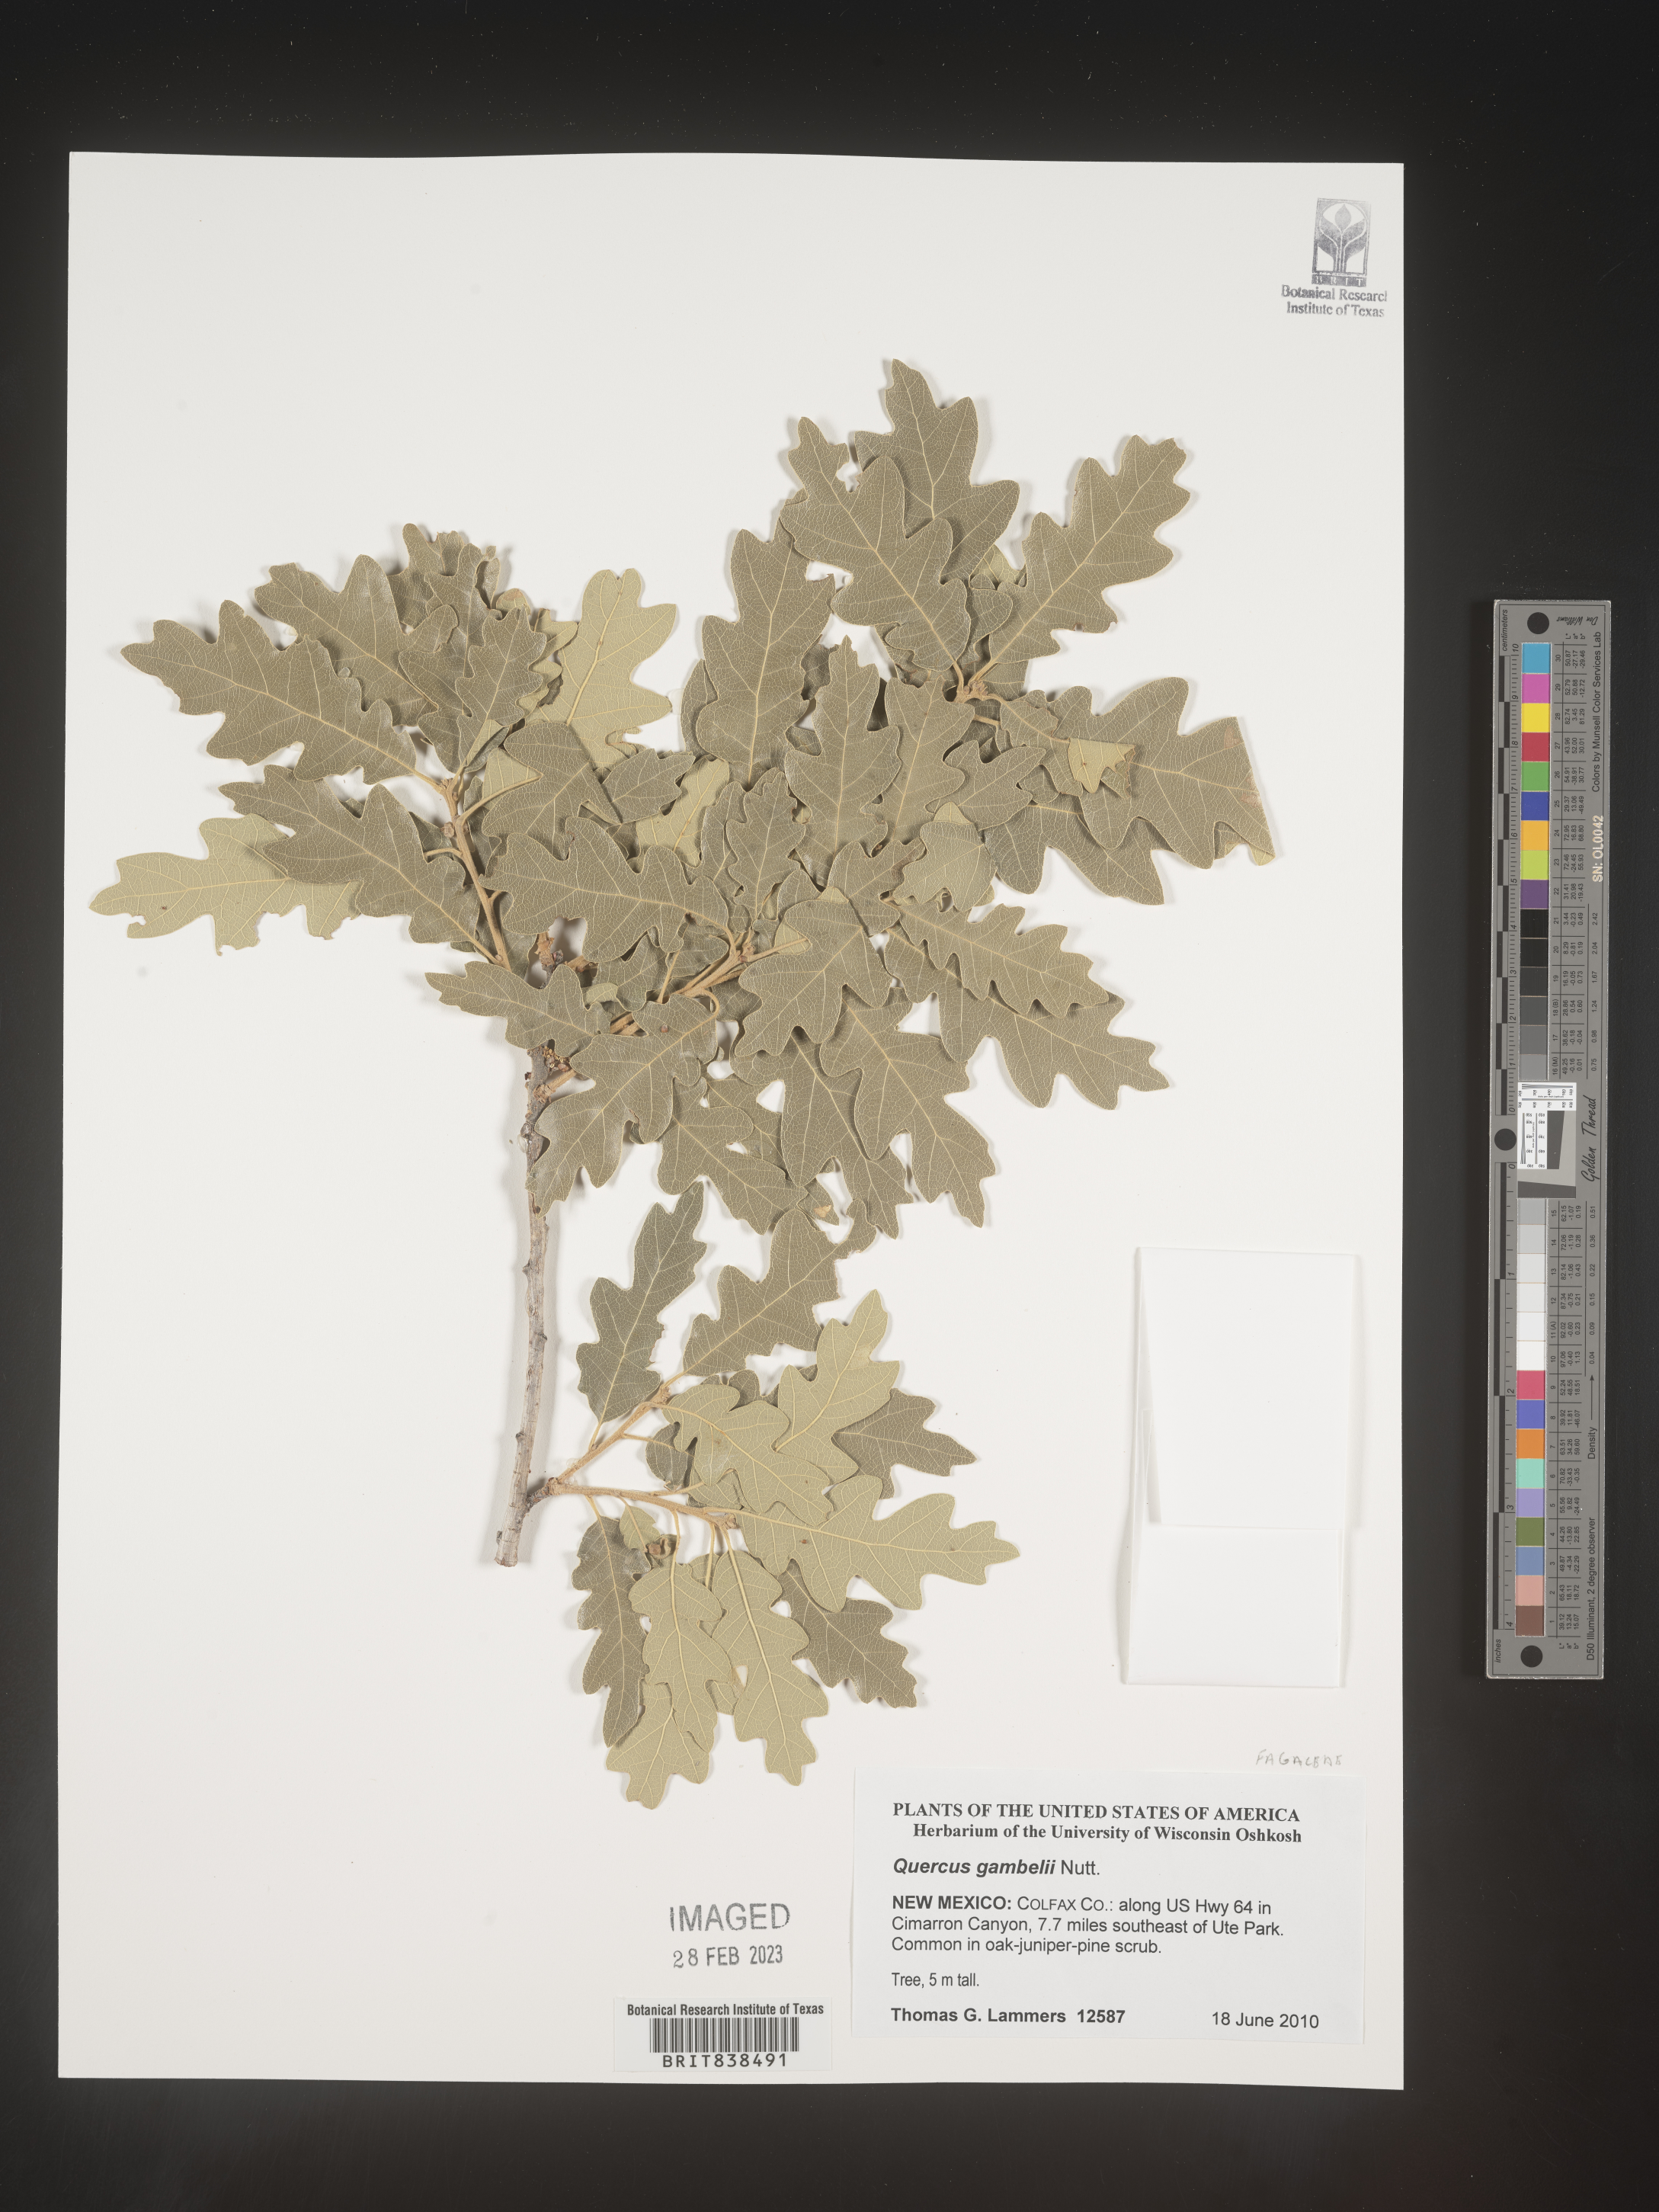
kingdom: Plantae
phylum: Tracheophyta
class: Magnoliopsida
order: Fagales
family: Fagaceae
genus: Quercus
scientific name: Quercus gambelii
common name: Gambel oak
